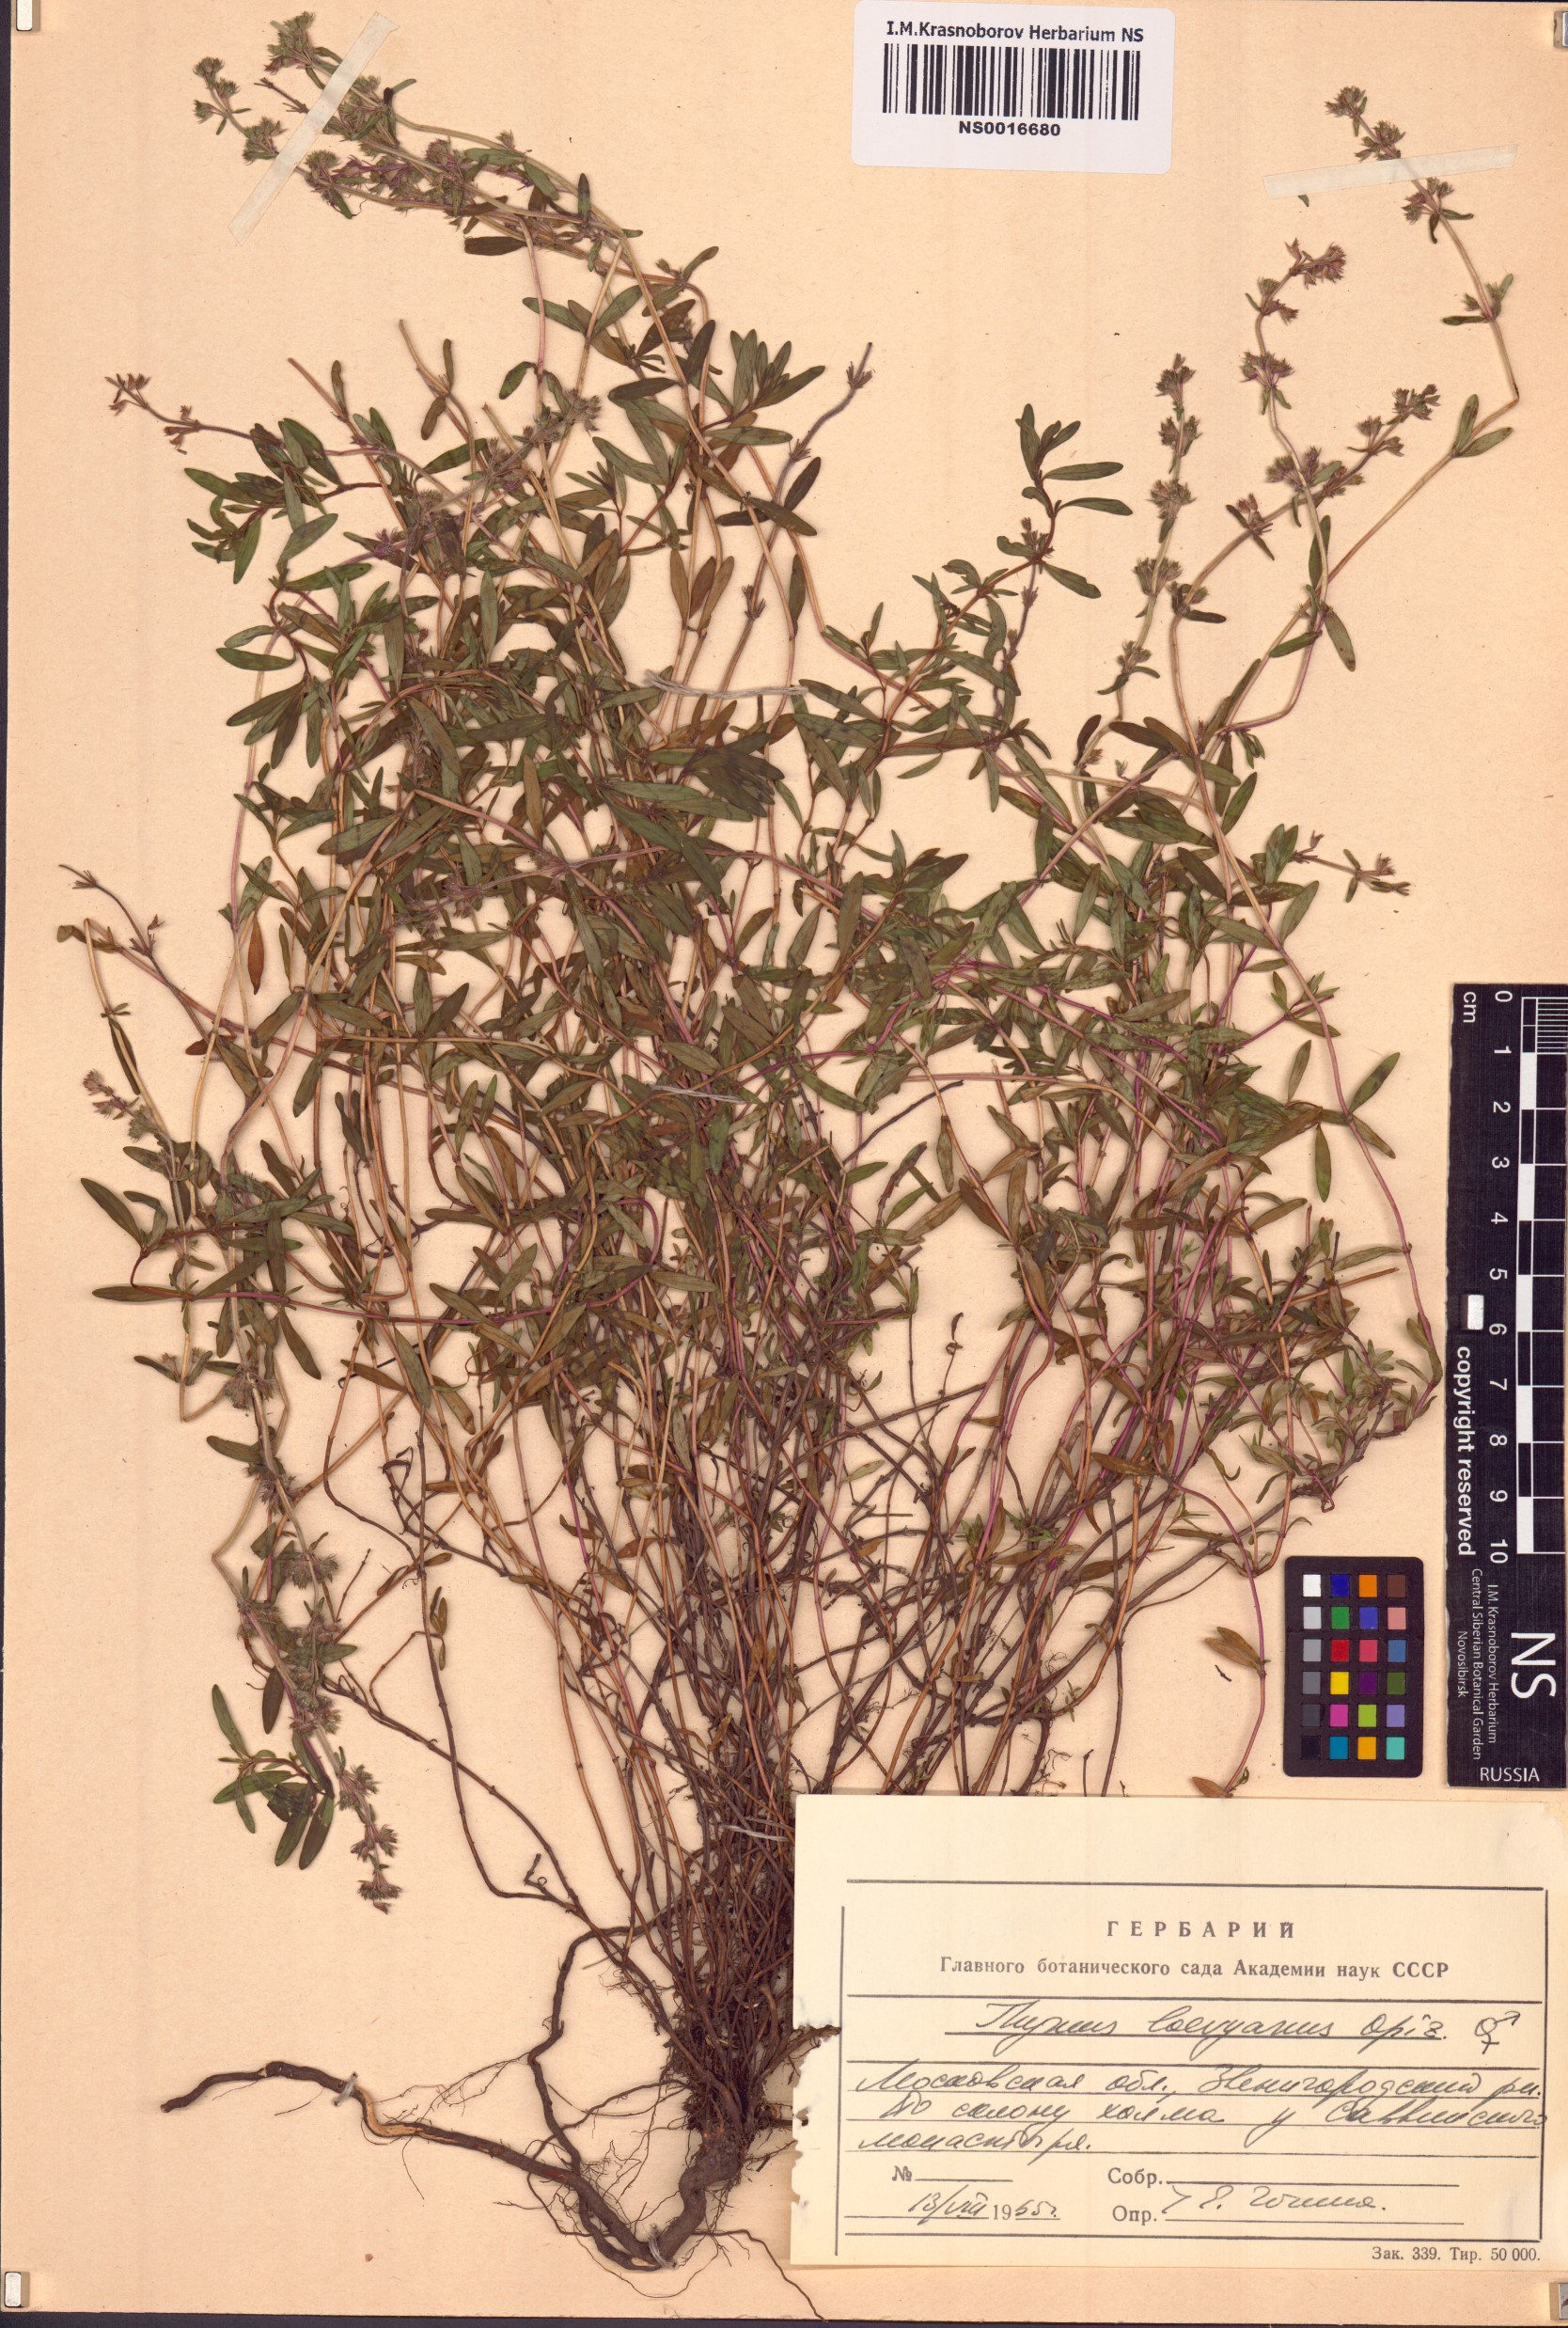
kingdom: Plantae
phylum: Tracheophyta
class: Magnoliopsida
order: Lamiales
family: Lamiaceae
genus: Thymus
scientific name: Thymus odoratissimus
